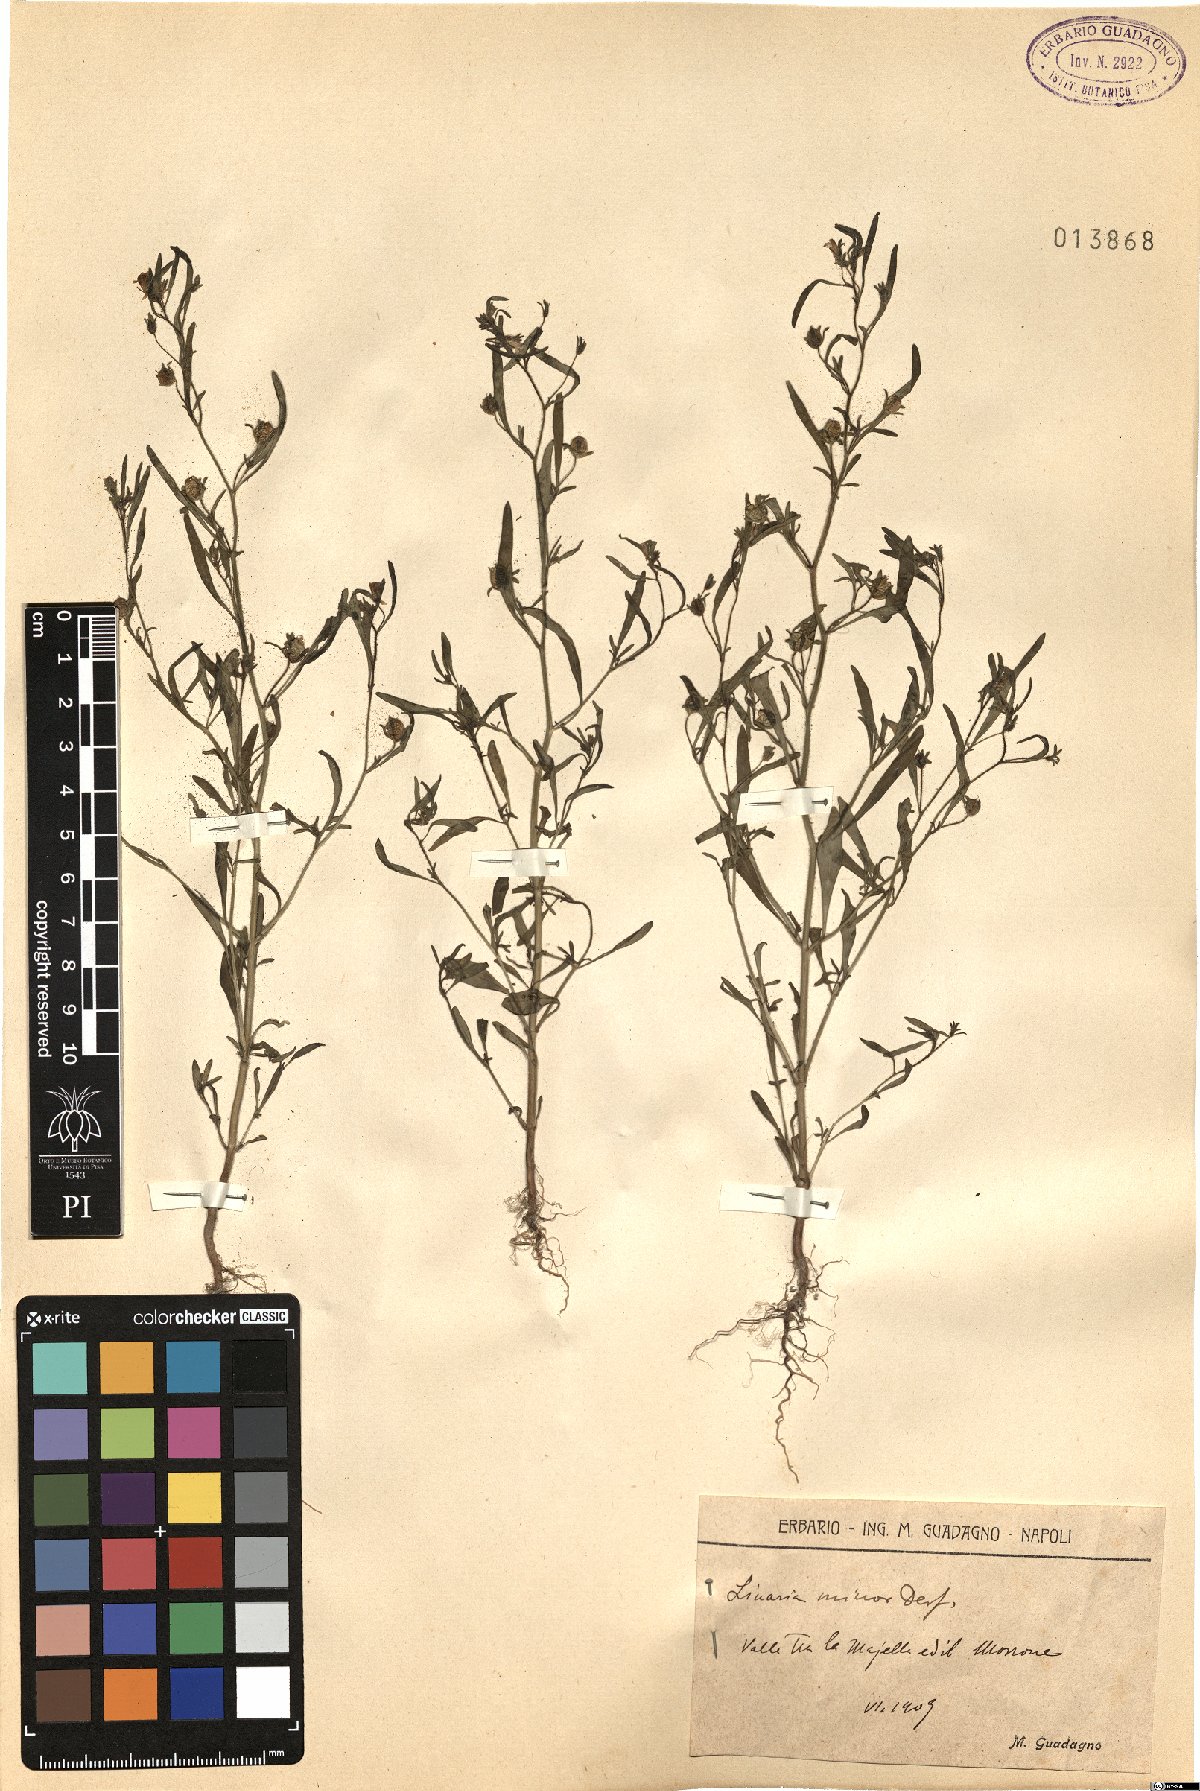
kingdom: Plantae
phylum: Tracheophyta
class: Magnoliopsida
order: Lamiales
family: Plantaginaceae
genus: Chaenorhinum
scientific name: Chaenorhinum minus
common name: Dwarf snapdragon
